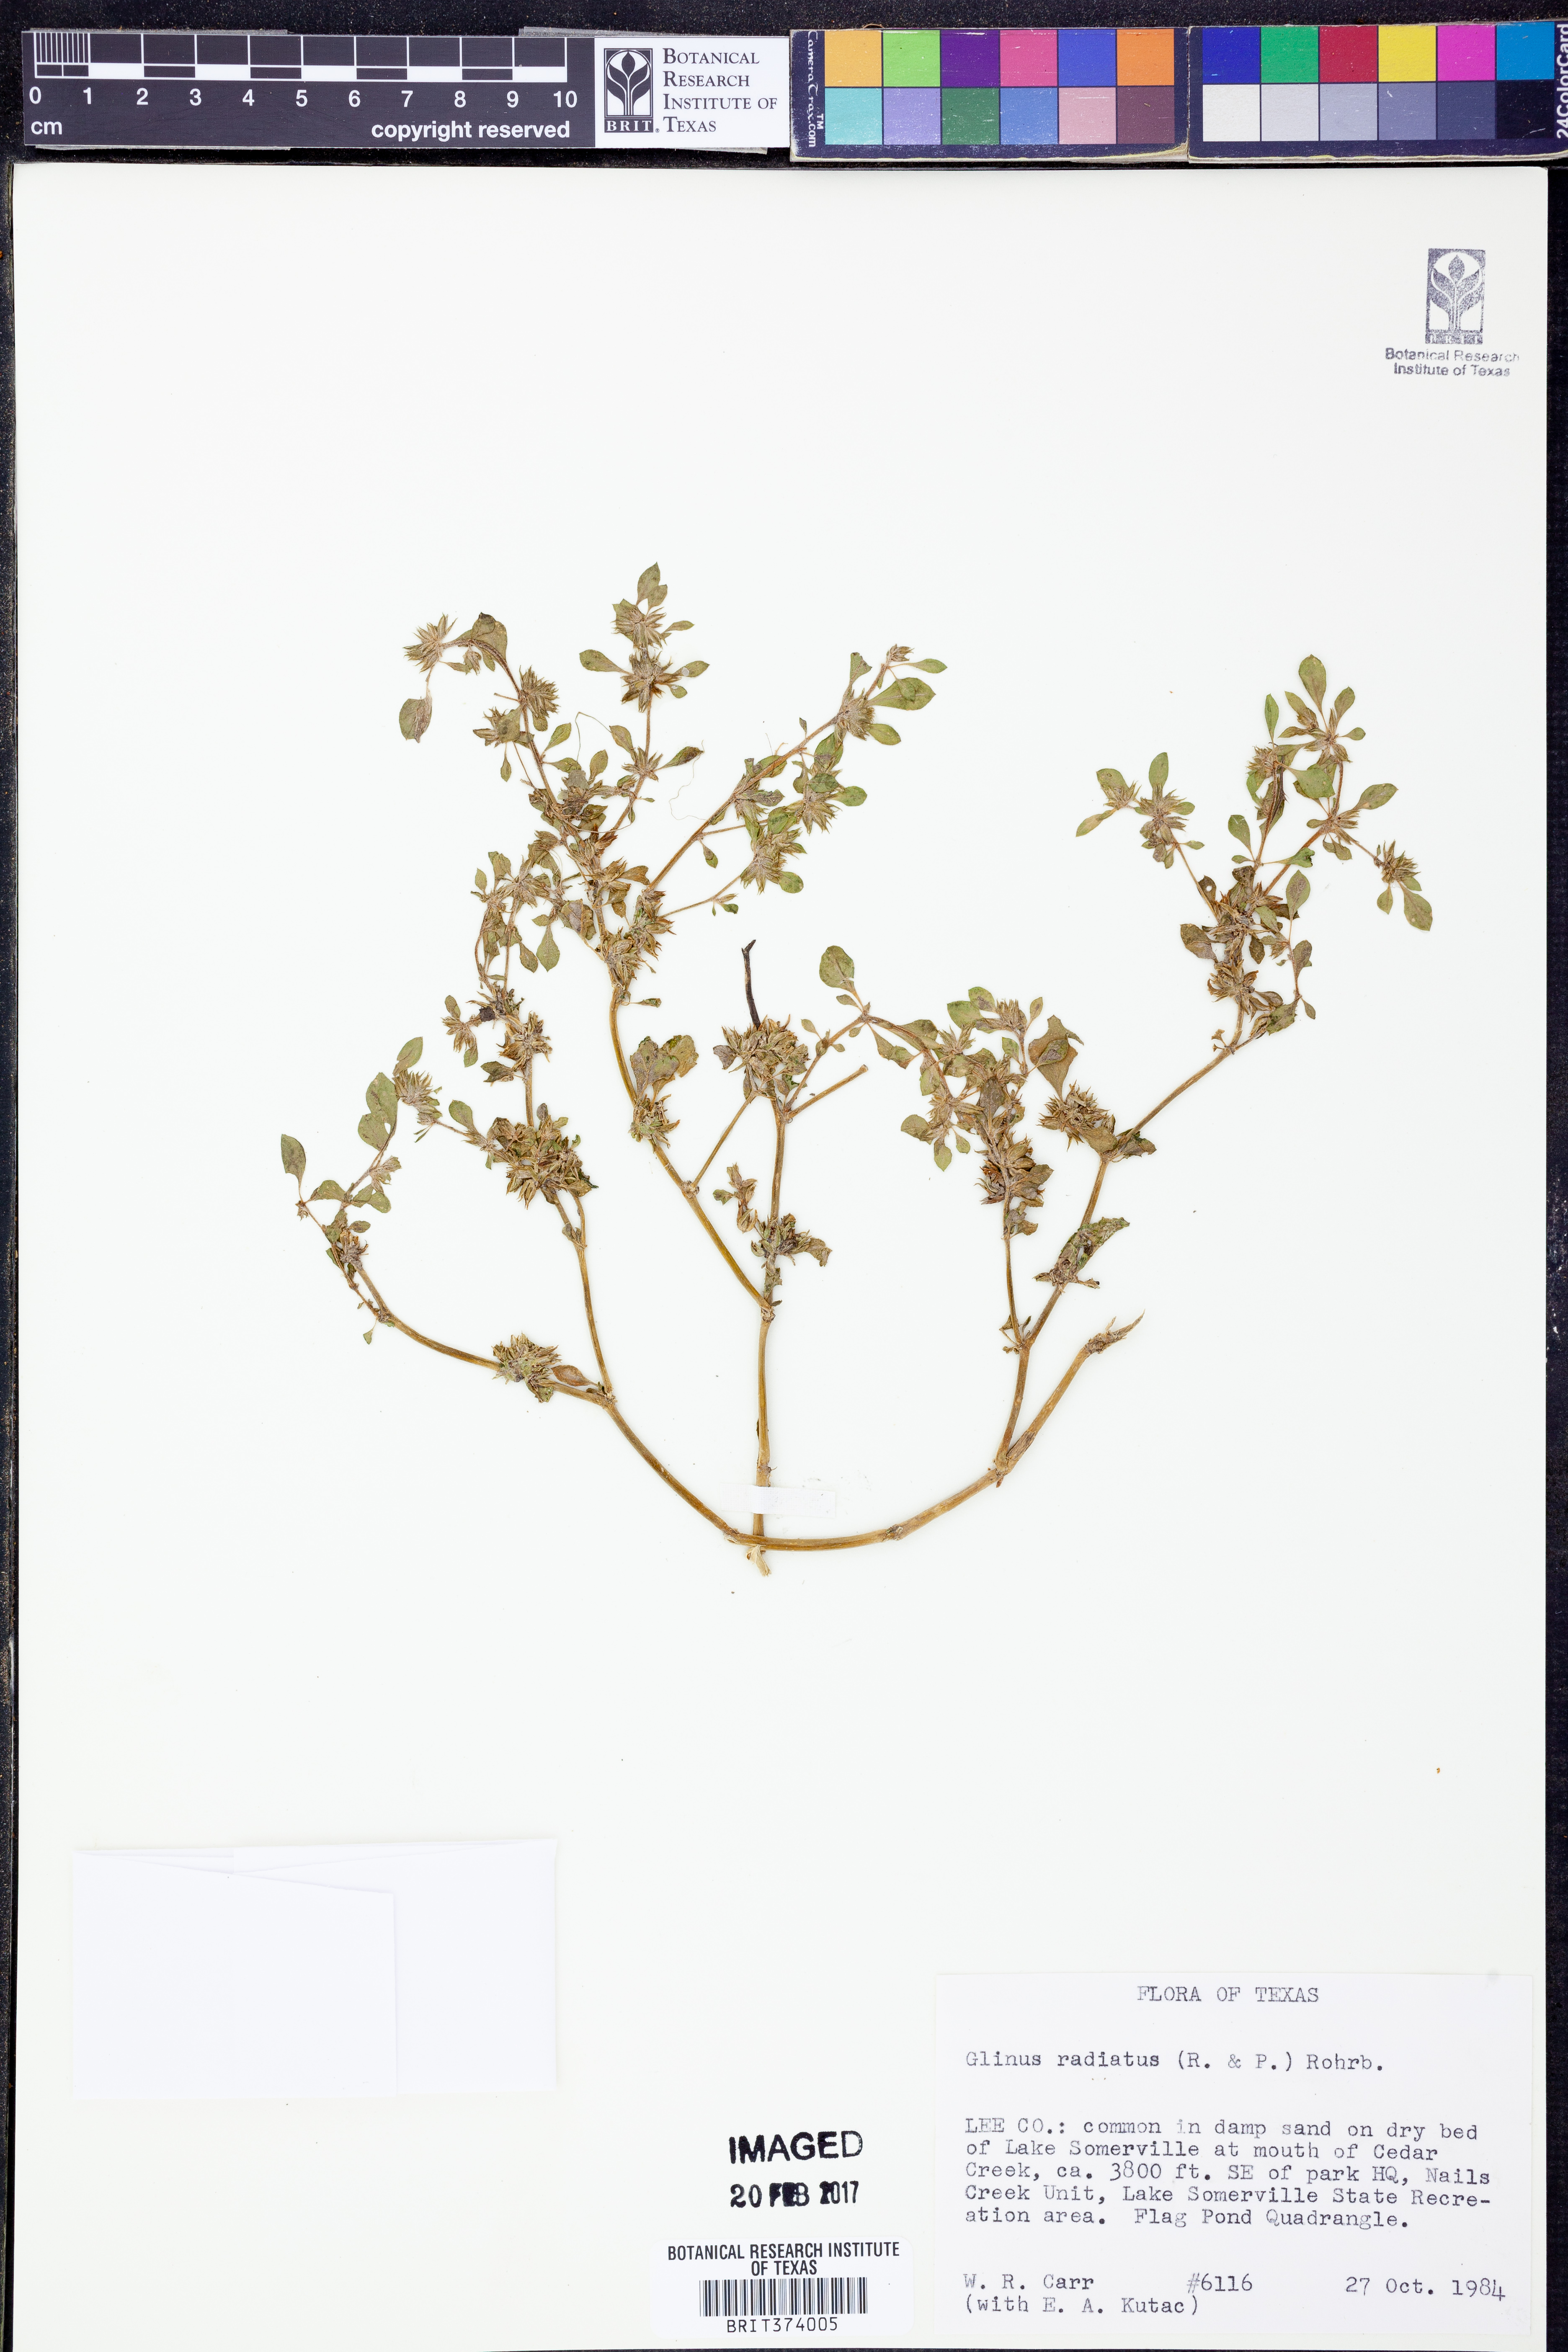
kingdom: Plantae
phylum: Tracheophyta
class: Magnoliopsida
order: Caryophyllales
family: Molluginaceae
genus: Glinus
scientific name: Glinus radiatus
